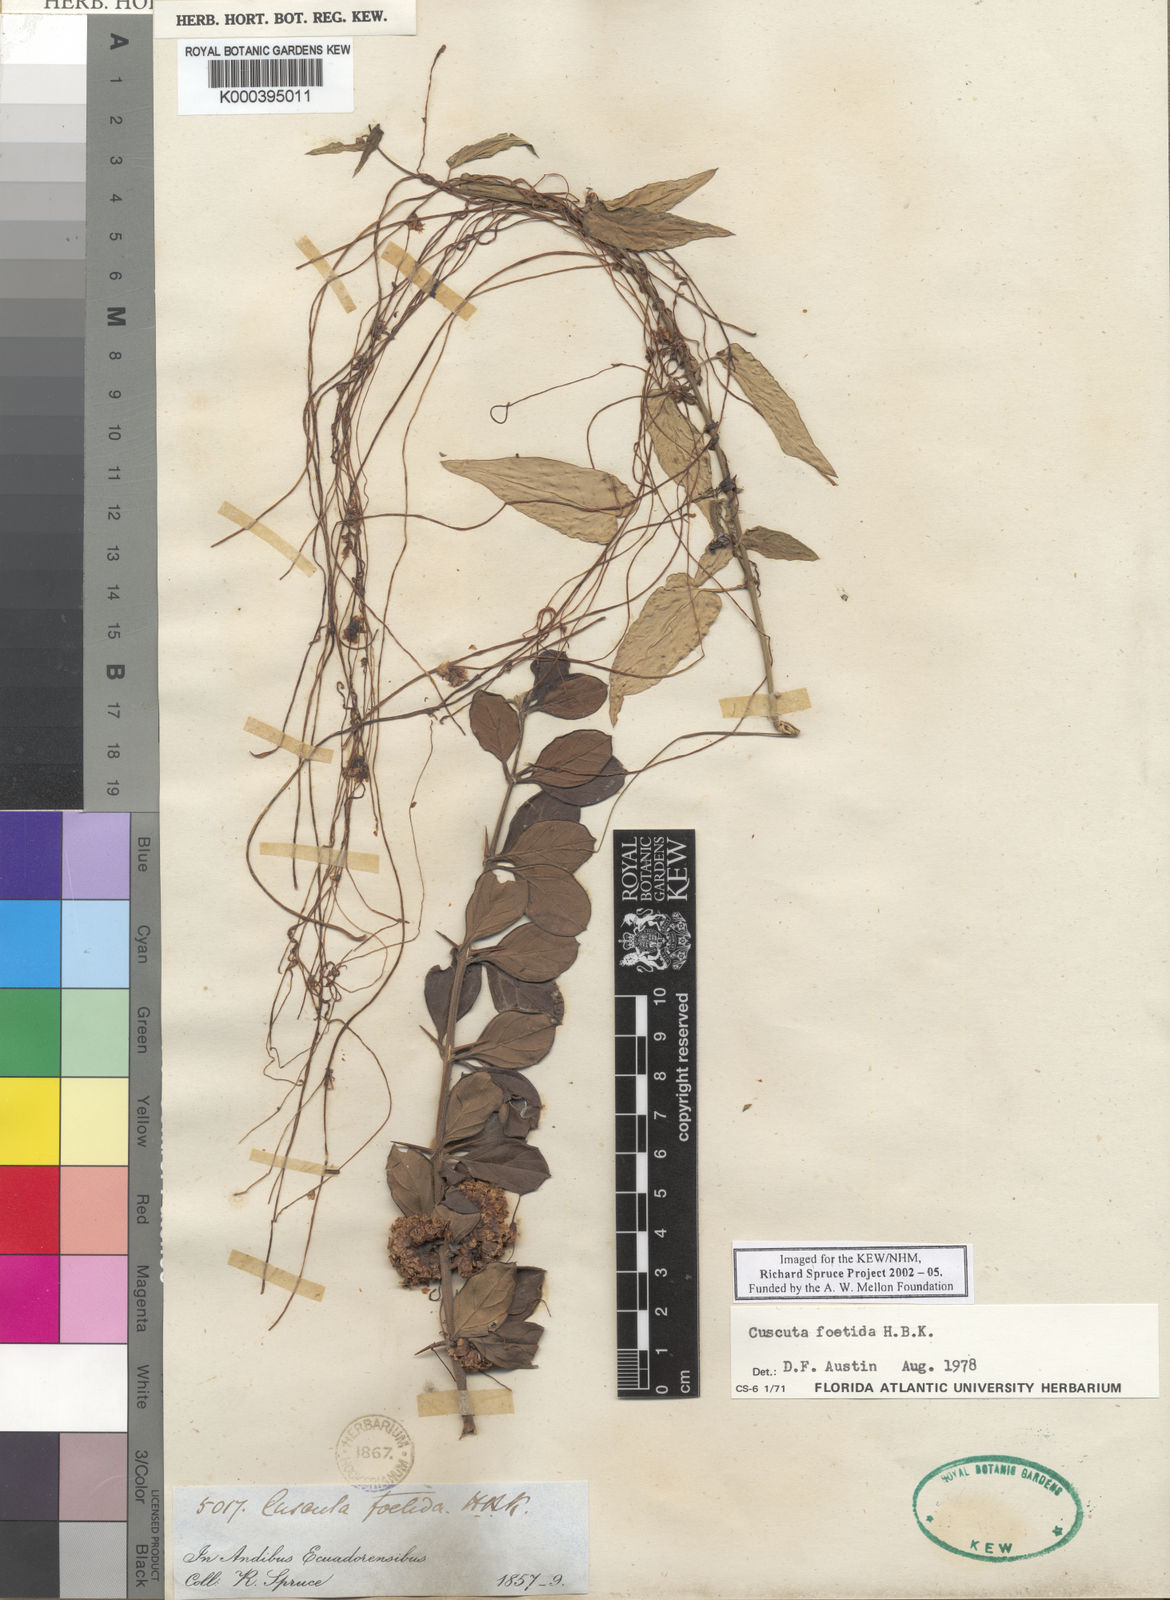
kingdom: Plantae
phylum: Tracheophyta
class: Magnoliopsida
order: Solanales
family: Convolvulaceae
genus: Cuscuta
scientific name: Cuscuta
